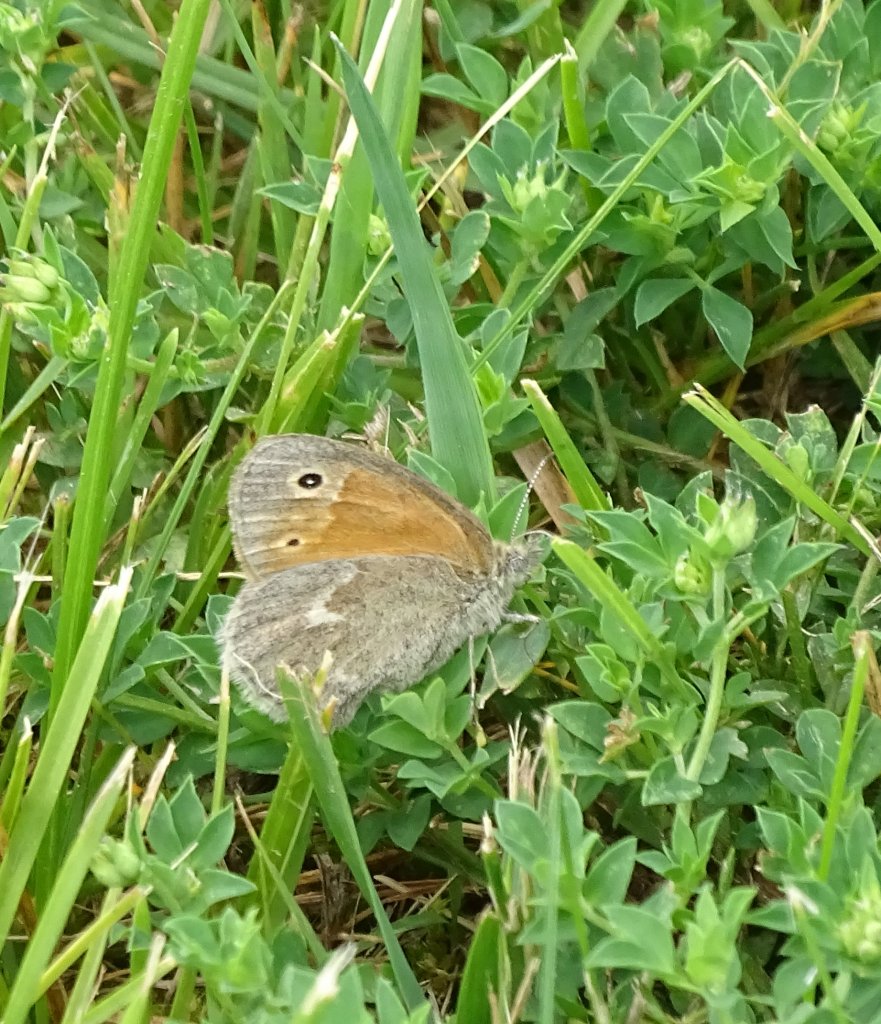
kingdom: Animalia
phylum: Arthropoda
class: Insecta
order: Lepidoptera
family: Nymphalidae
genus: Coenonympha
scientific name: Coenonympha tullia
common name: Large Heath
